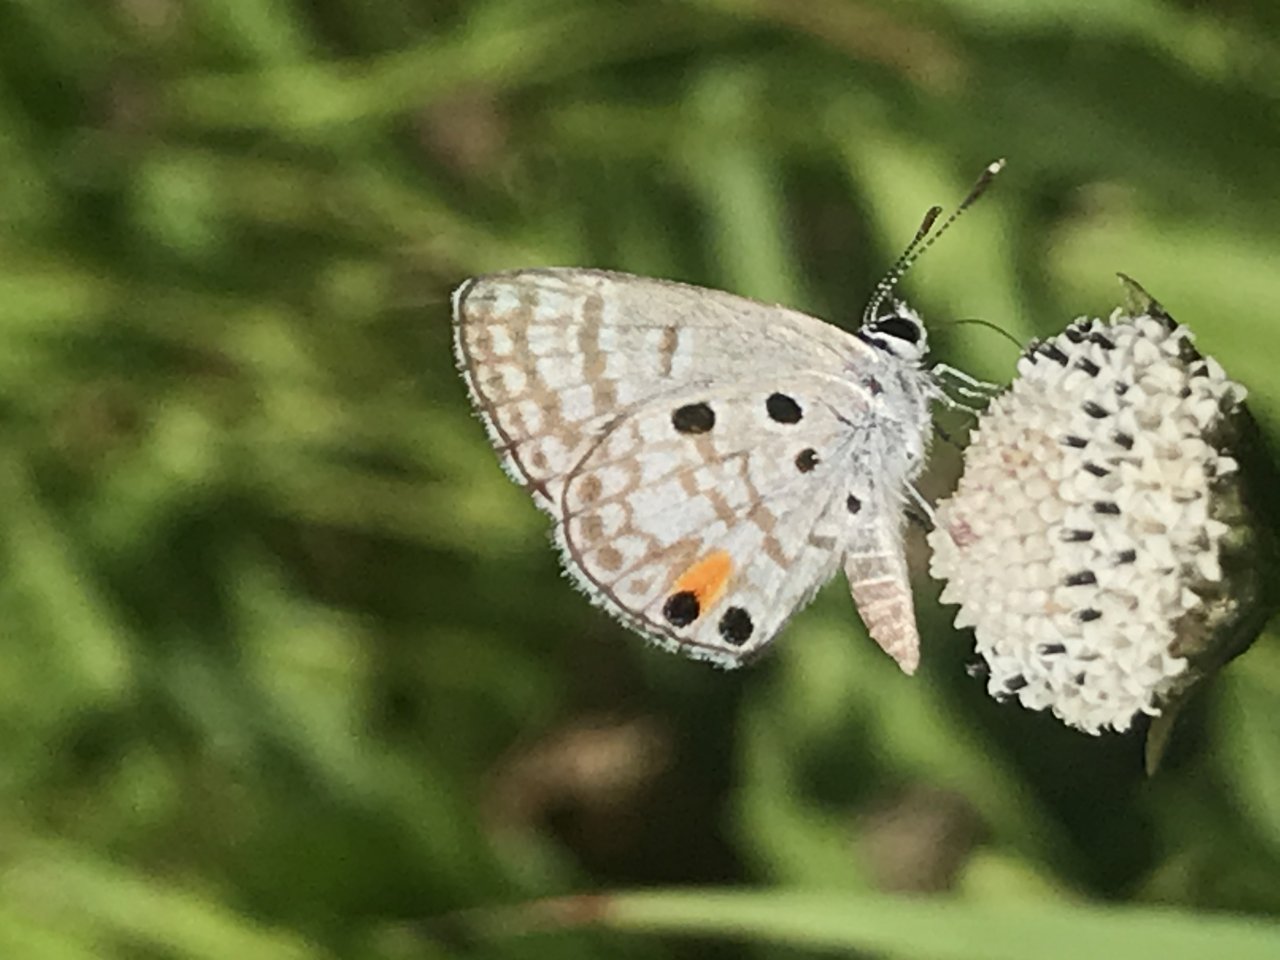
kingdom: Animalia
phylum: Arthropoda
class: Insecta
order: Lepidoptera
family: Lycaenidae
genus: Cyclargus
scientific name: Cyclargus ammon
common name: Nickerbean Blue
